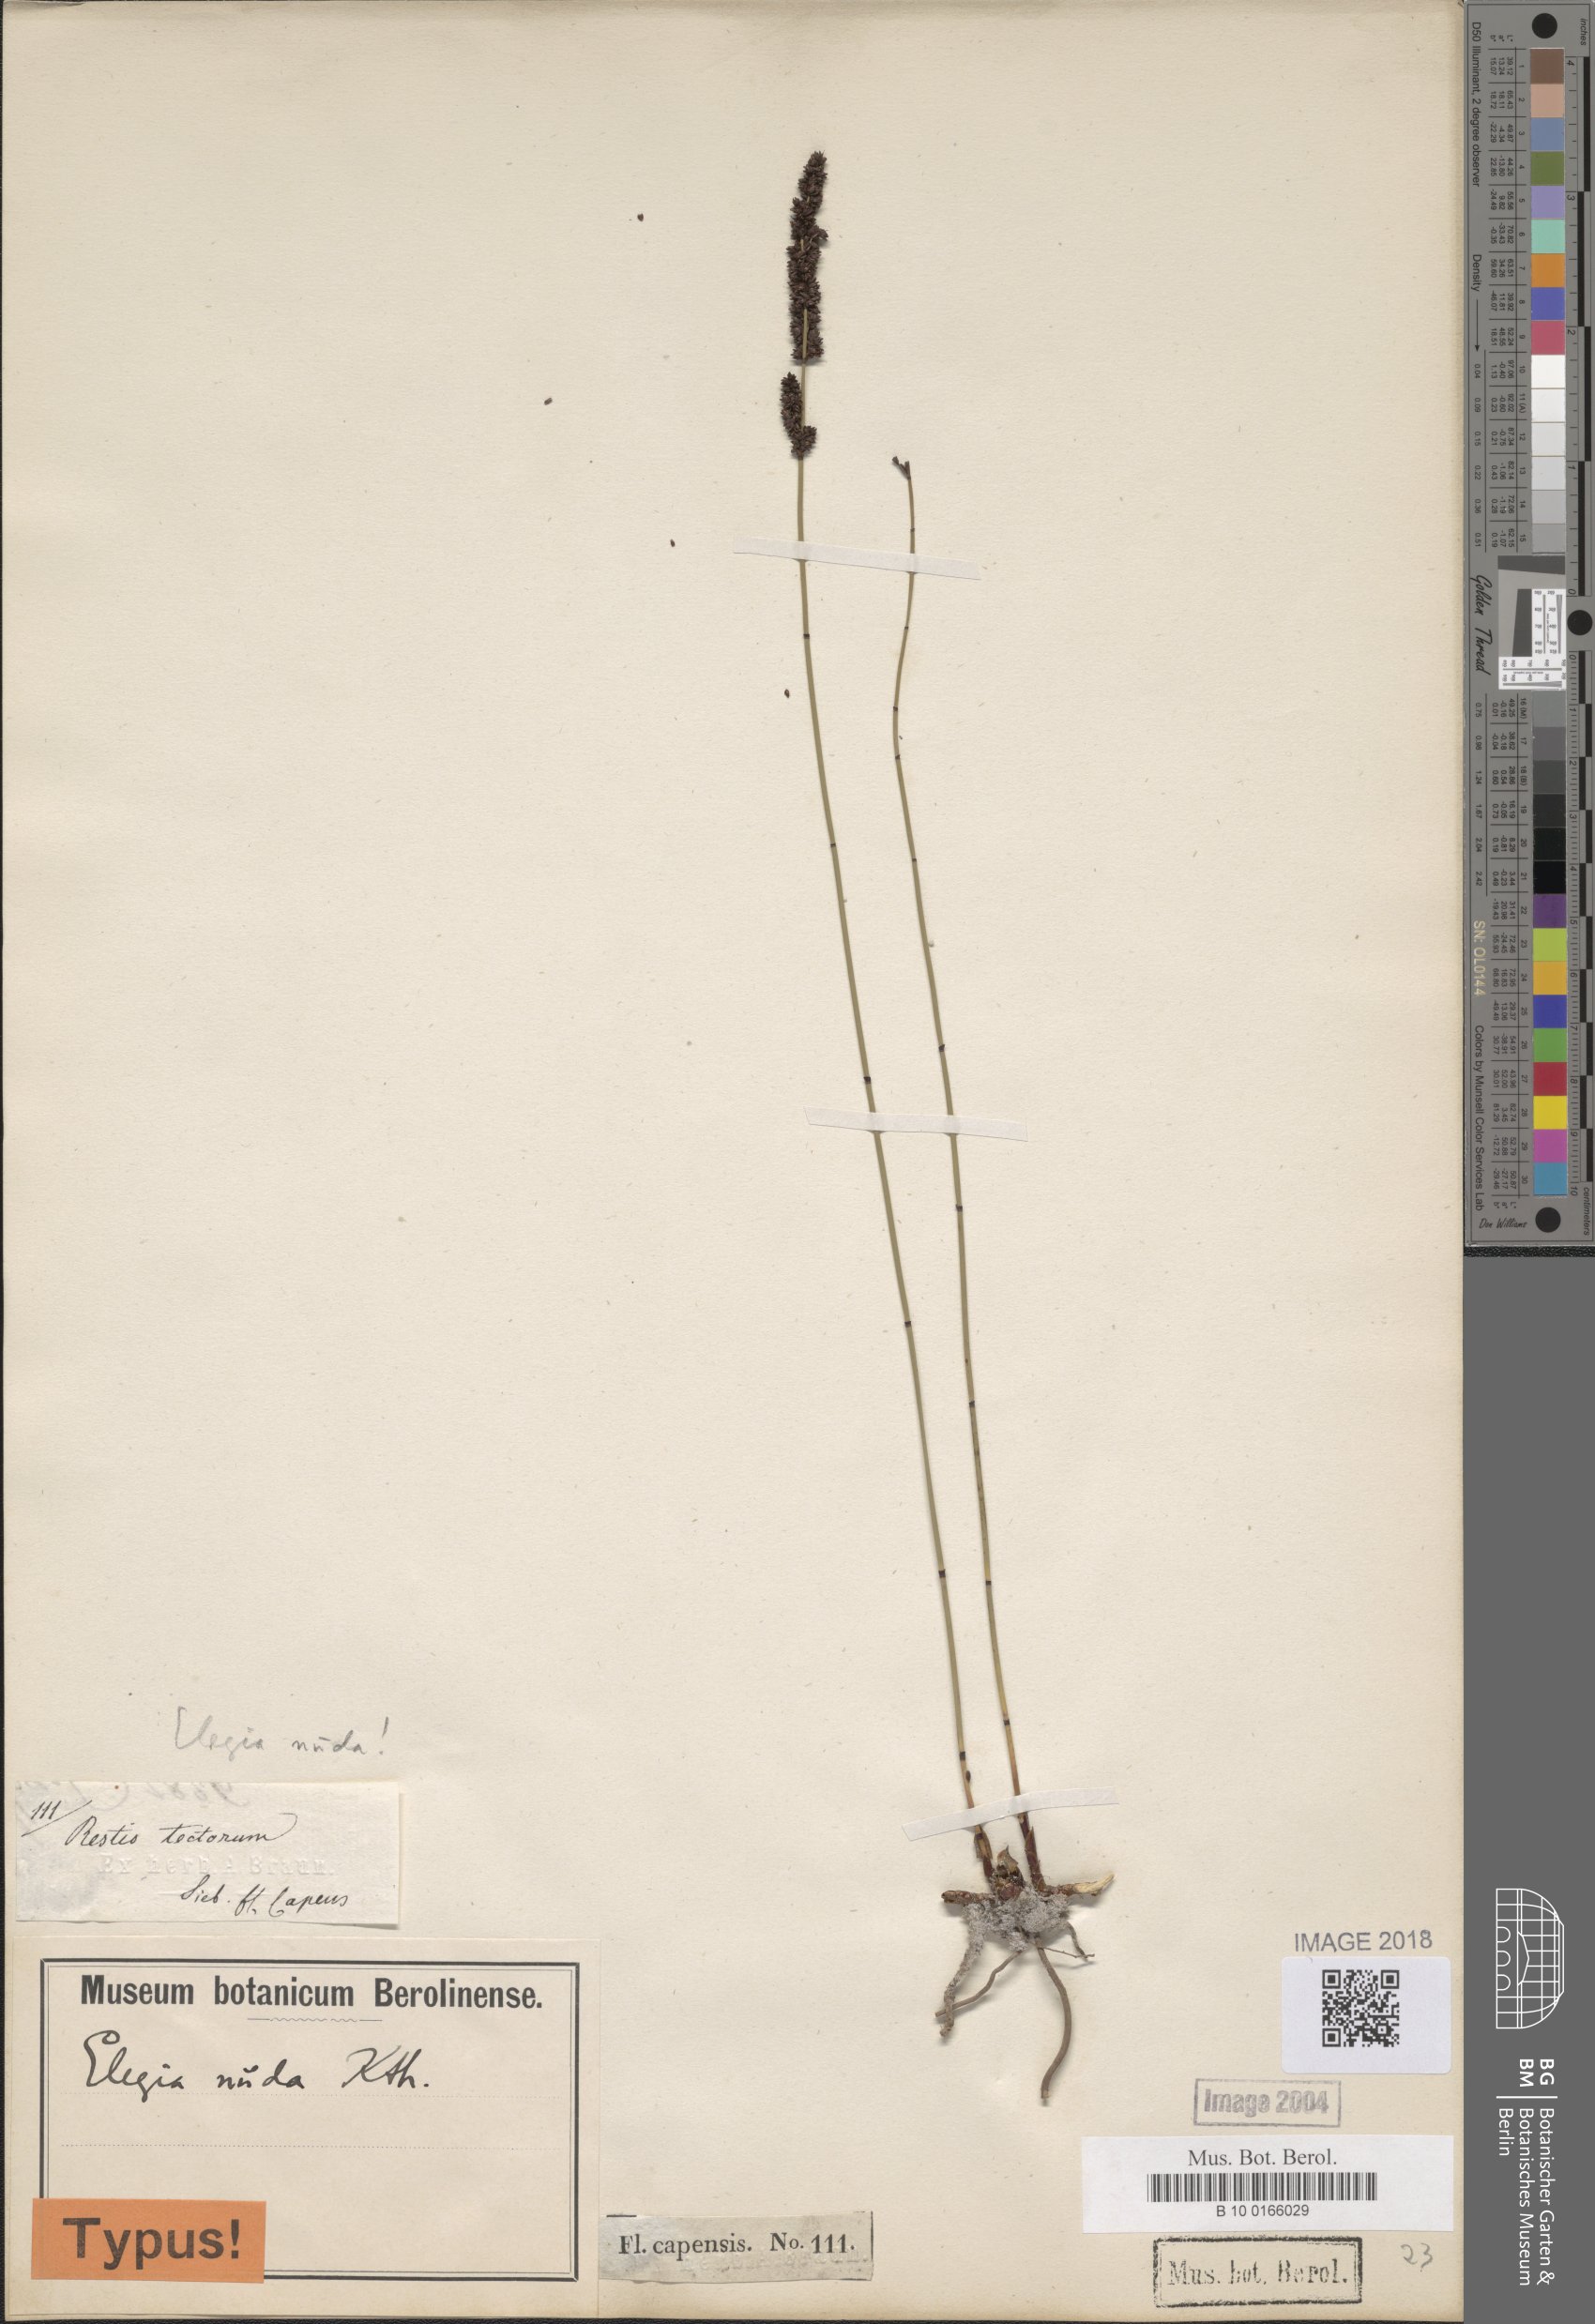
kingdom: Plantae
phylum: Tracheophyta
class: Liliopsida
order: Poales
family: Restionaceae
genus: Elegia
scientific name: Elegia nuda
